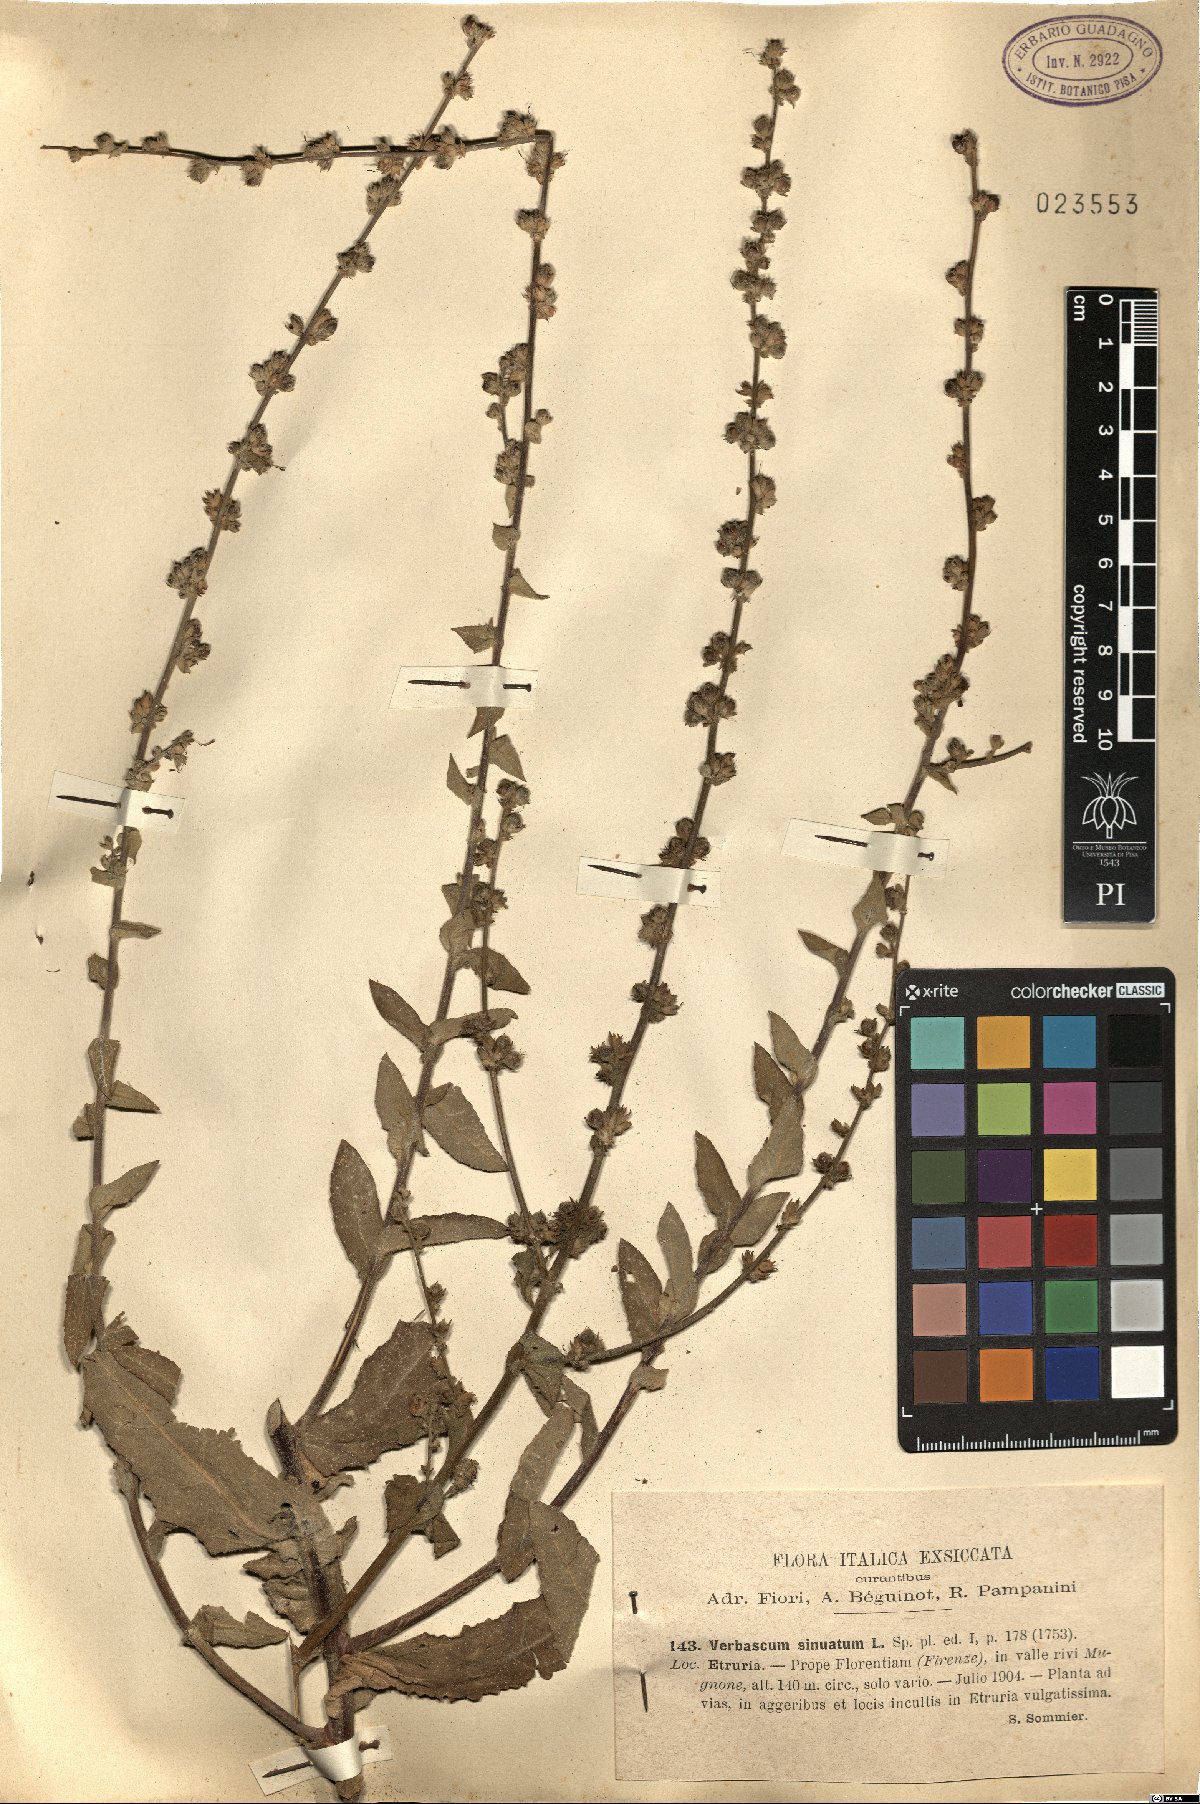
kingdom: Plantae
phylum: Tracheophyta
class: Magnoliopsida
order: Lamiales
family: Scrophulariaceae
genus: Verbascum
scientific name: Verbascum sinuatum
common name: Wavyleaf mullein
